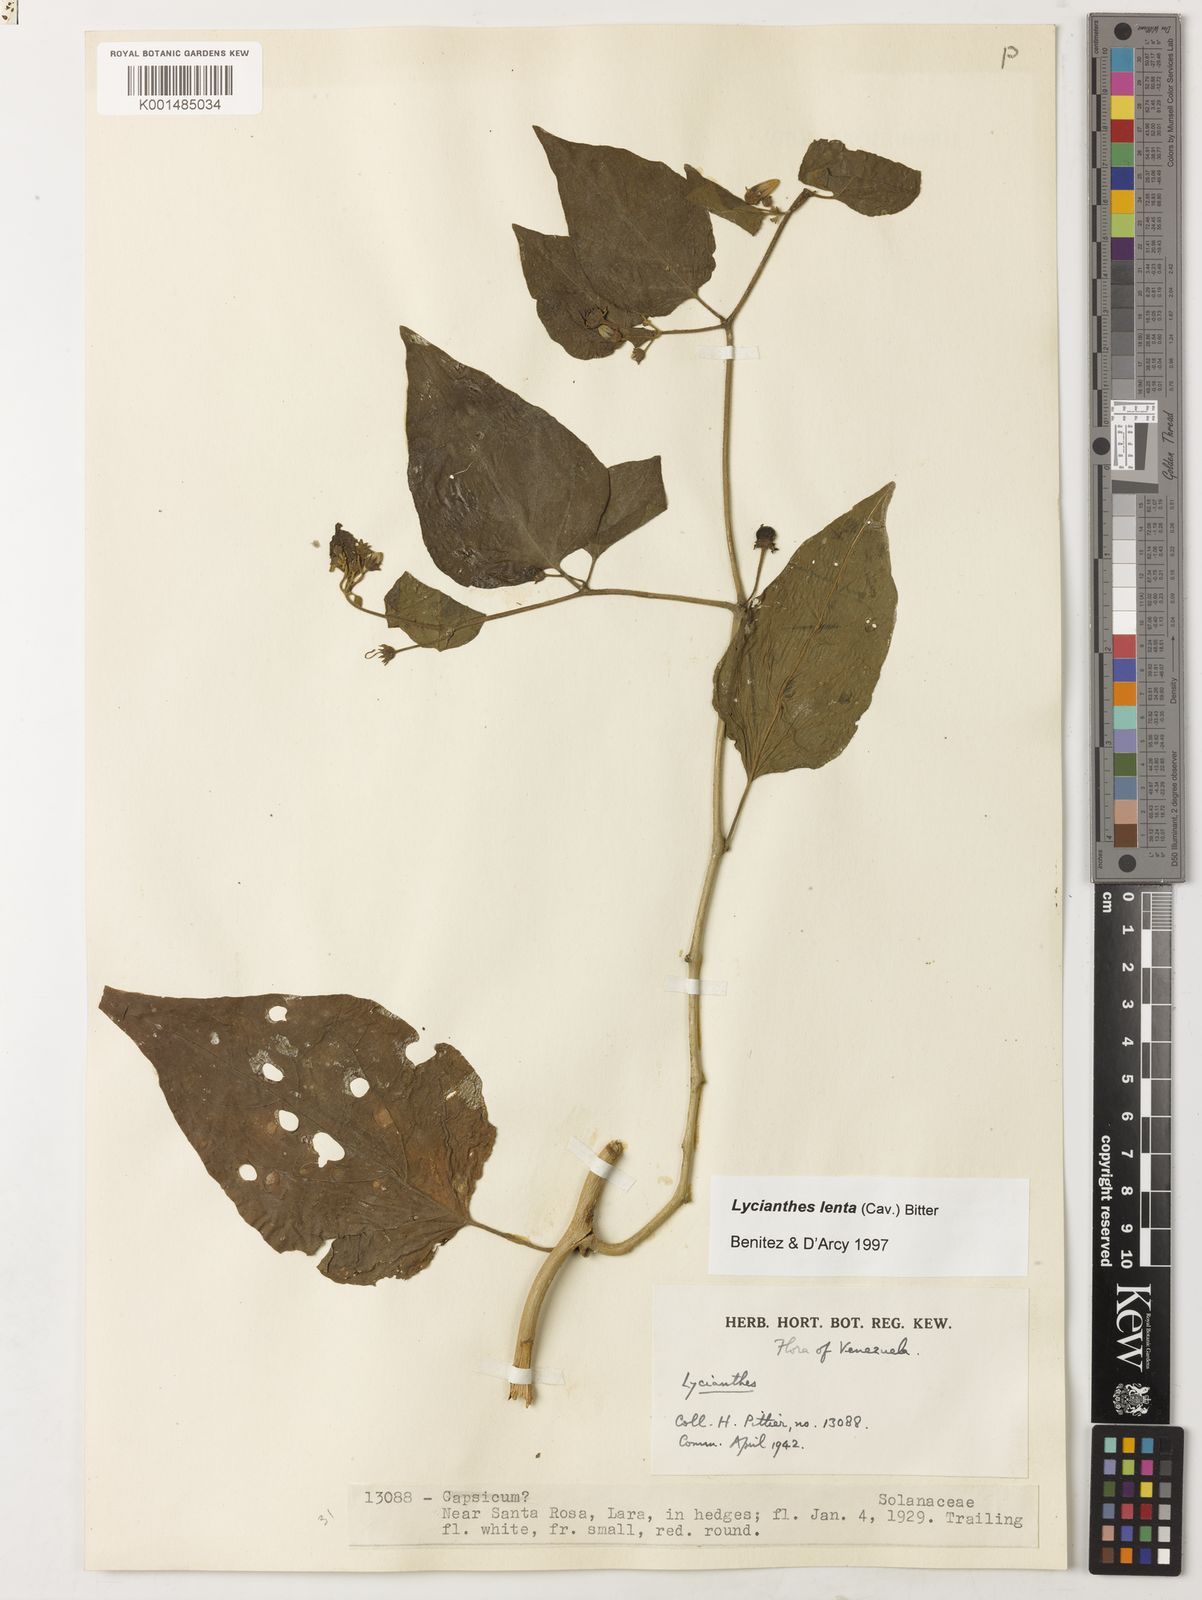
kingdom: Plantae
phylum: Tracheophyta
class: Magnoliopsida
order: Solanales
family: Solanaceae
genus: Lycianthes
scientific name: Lycianthes scandens
